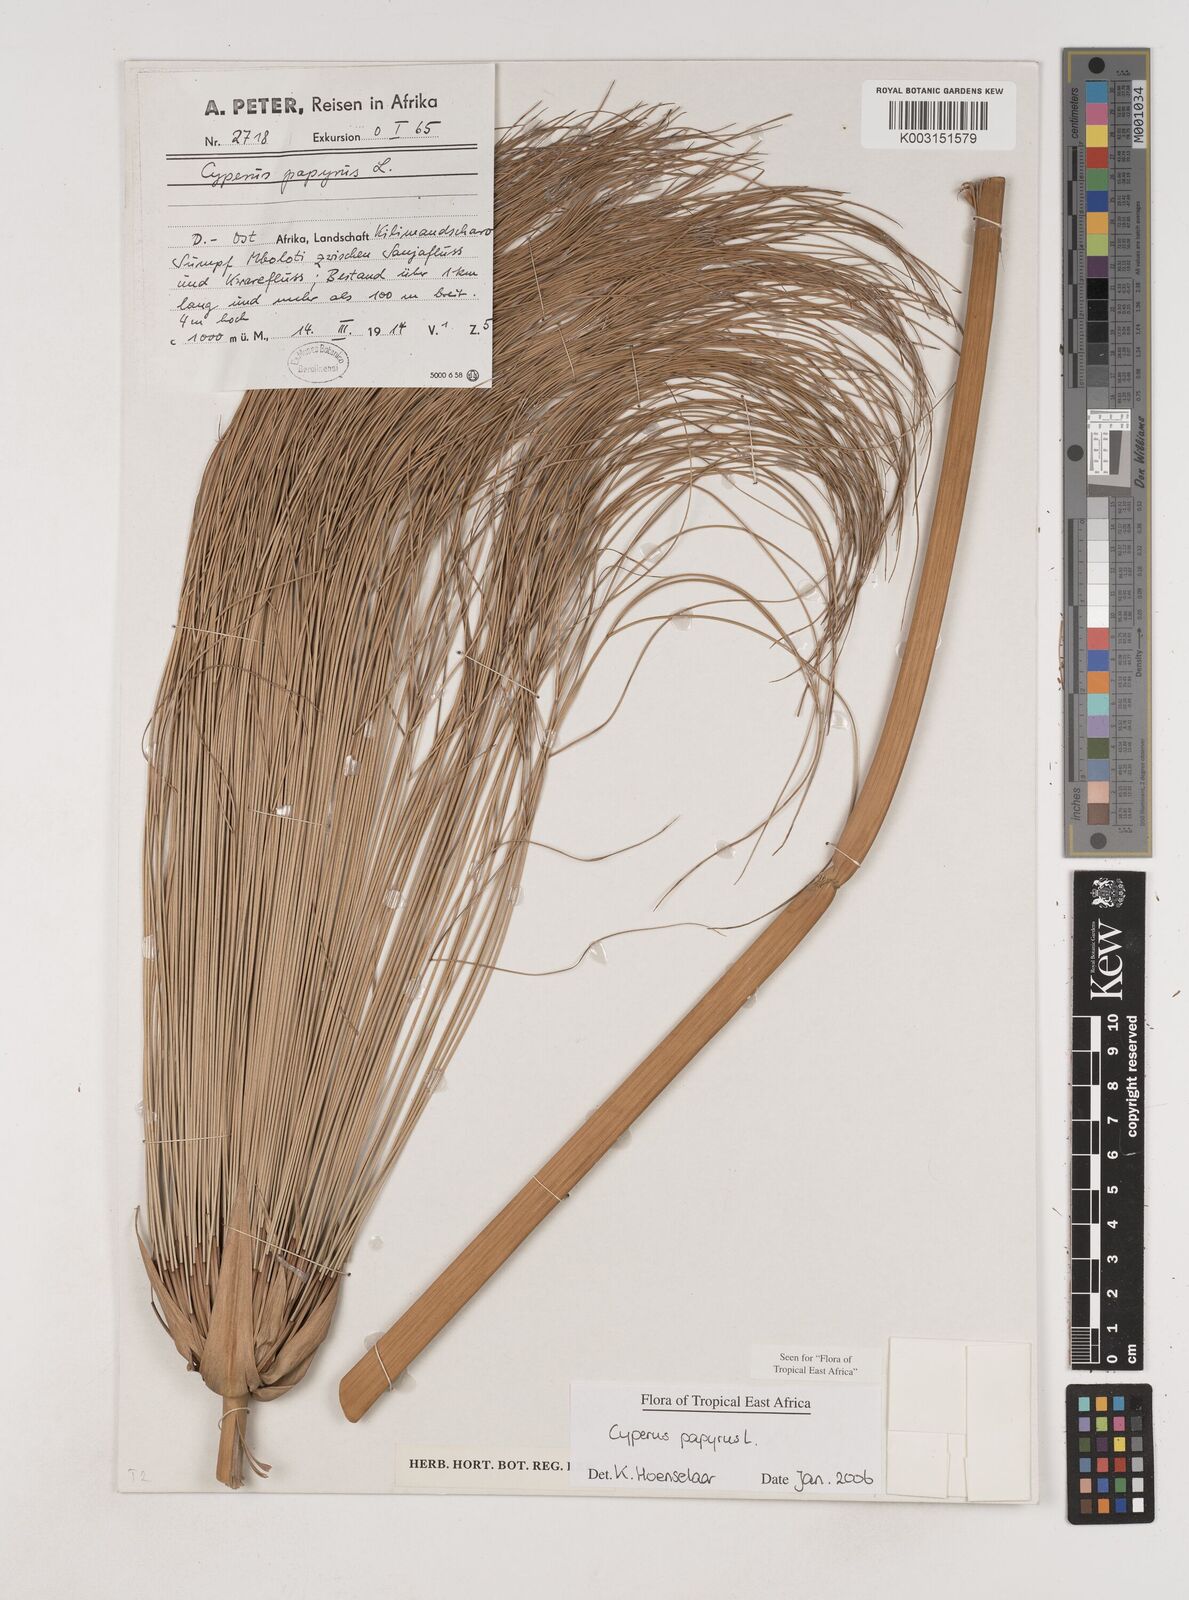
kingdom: Plantae
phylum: Tracheophyta
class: Liliopsida
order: Poales
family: Cyperaceae
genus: Cyperus
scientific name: Cyperus papyrus
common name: Papyrus
